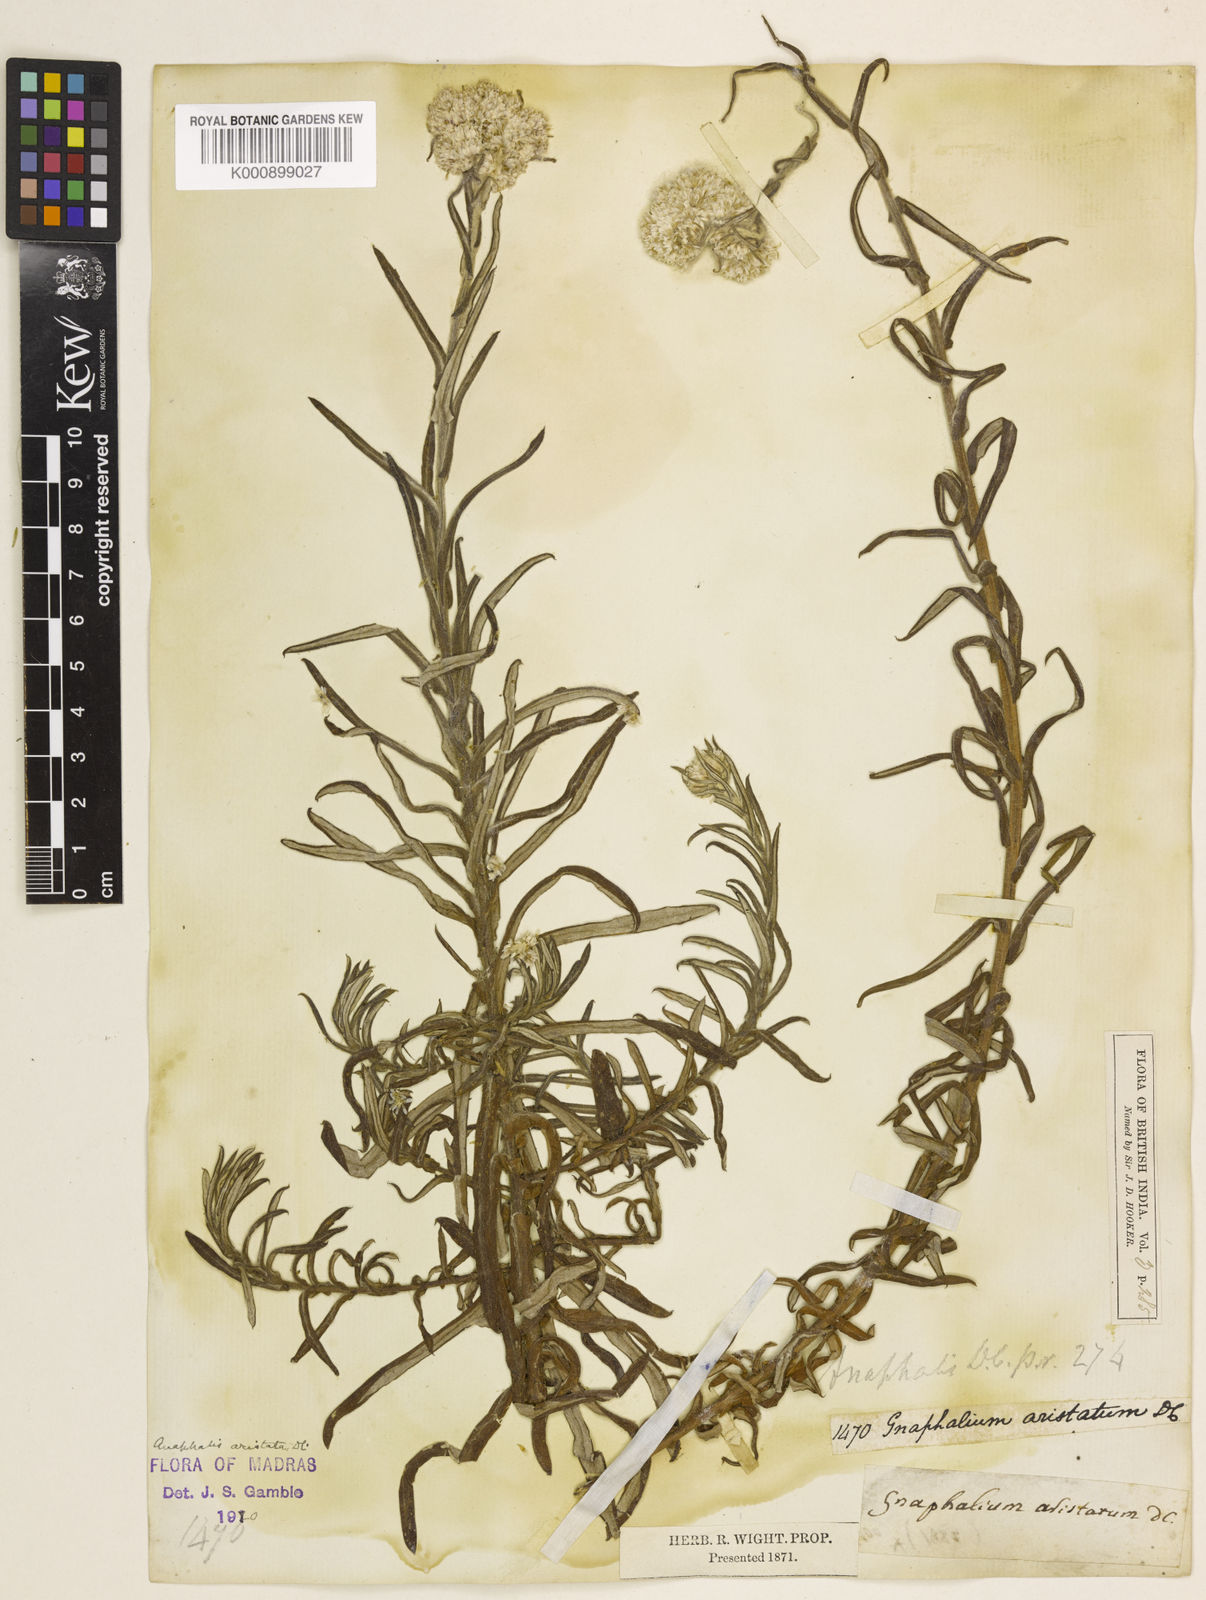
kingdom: Plantae
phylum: Tracheophyta
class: Magnoliopsida
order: Asterales
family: Asteraceae
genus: Anaphalis
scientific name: Anaphalis aristata
